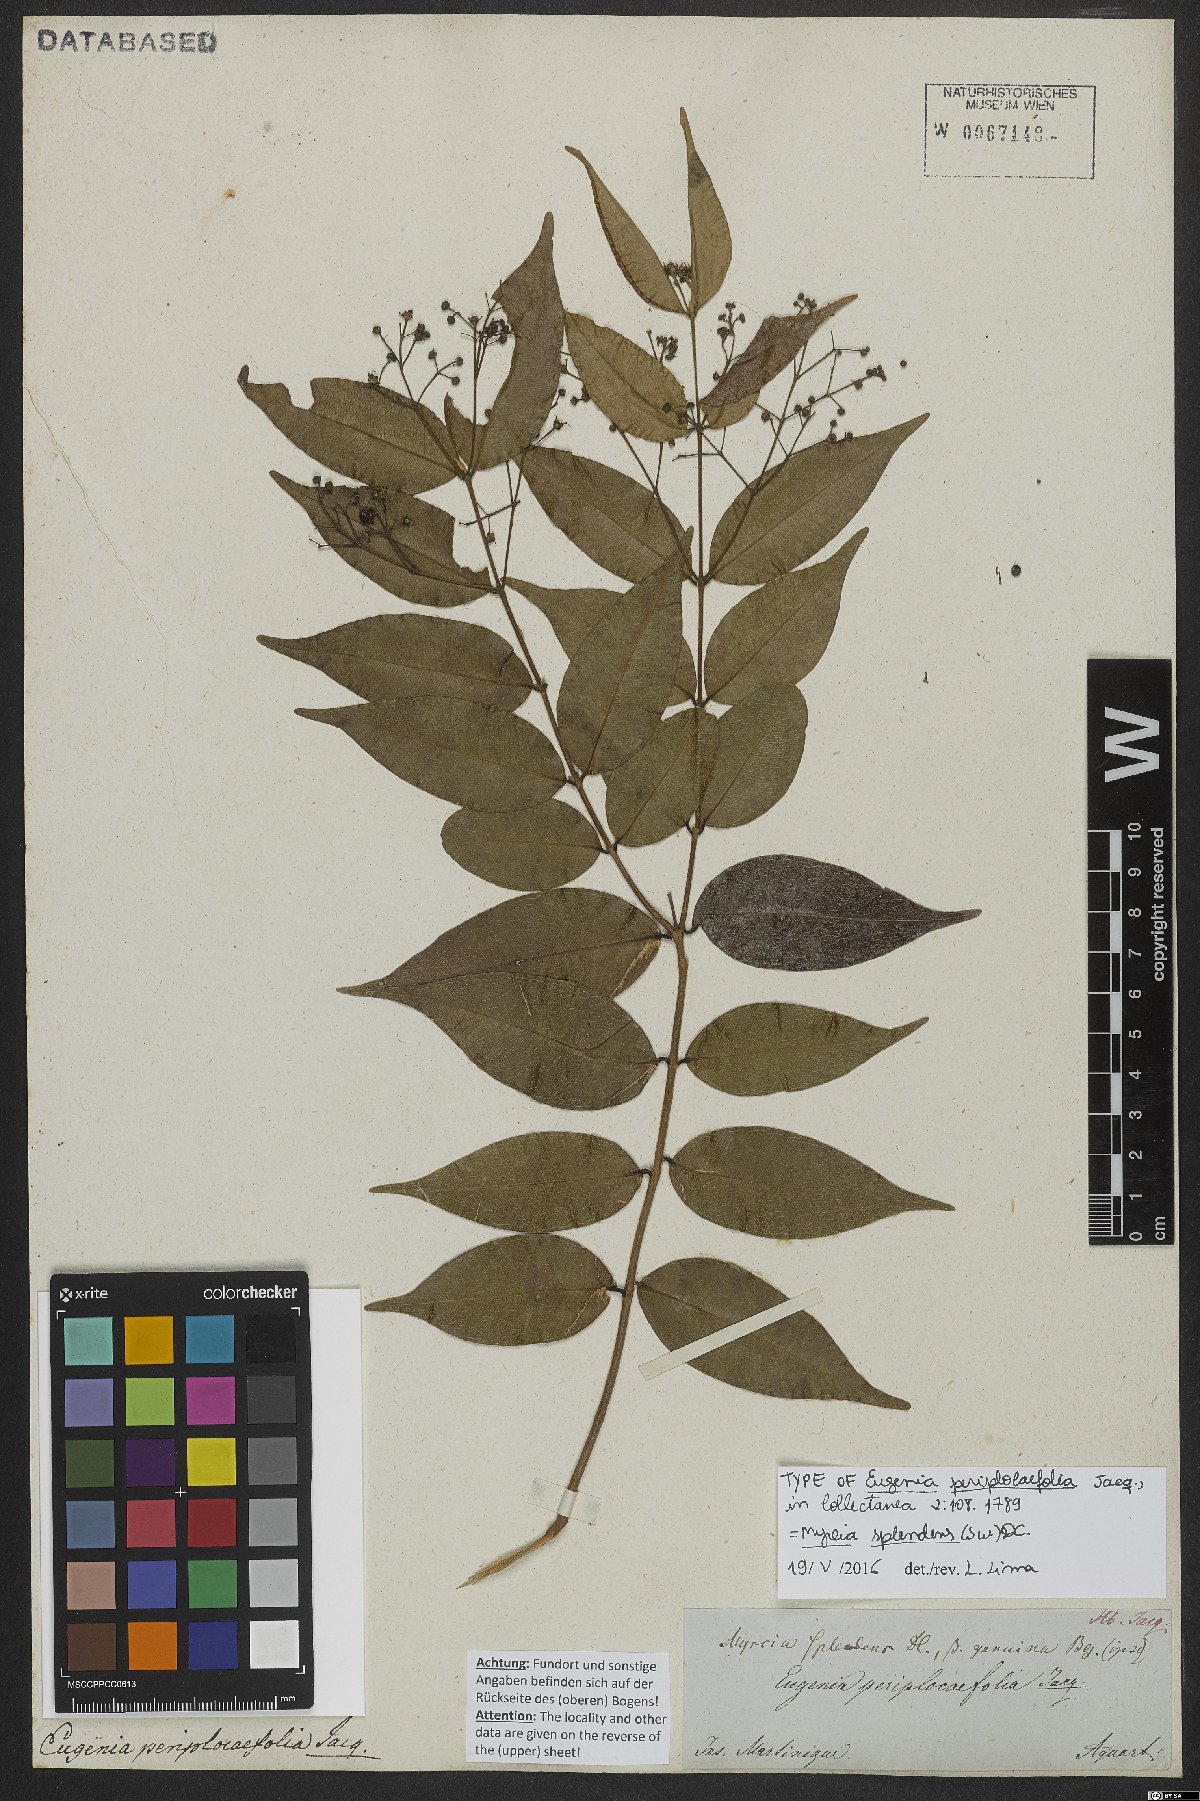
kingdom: Plantae
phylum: Tracheophyta
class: Magnoliopsida
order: Myrtales
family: Myrtaceae
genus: Myrcia
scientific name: Myrcia splendens
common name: Surinam cherry
